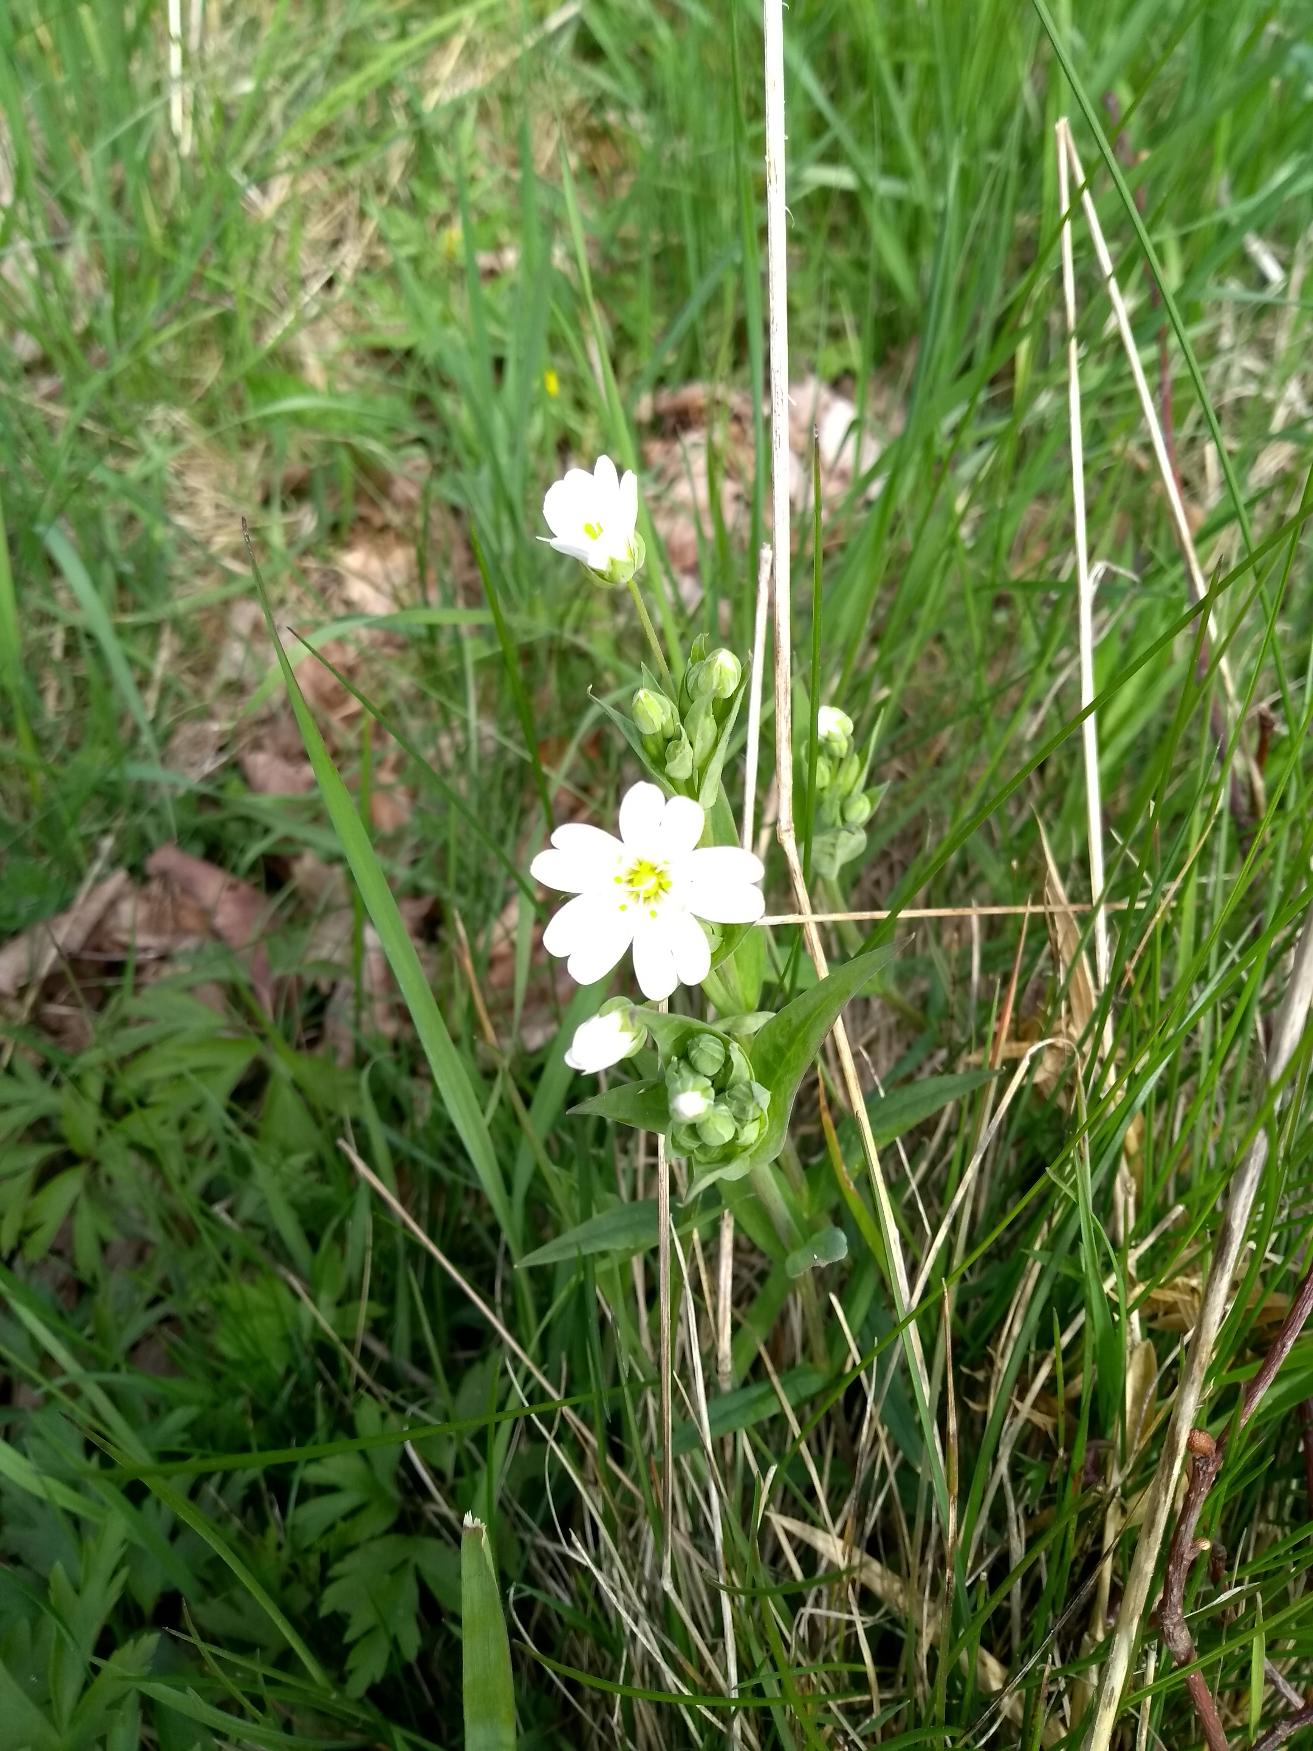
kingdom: Plantae
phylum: Tracheophyta
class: Magnoliopsida
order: Caryophyllales
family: Caryophyllaceae
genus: Rabelera
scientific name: Rabelera holostea
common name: Stor fladstjerne
